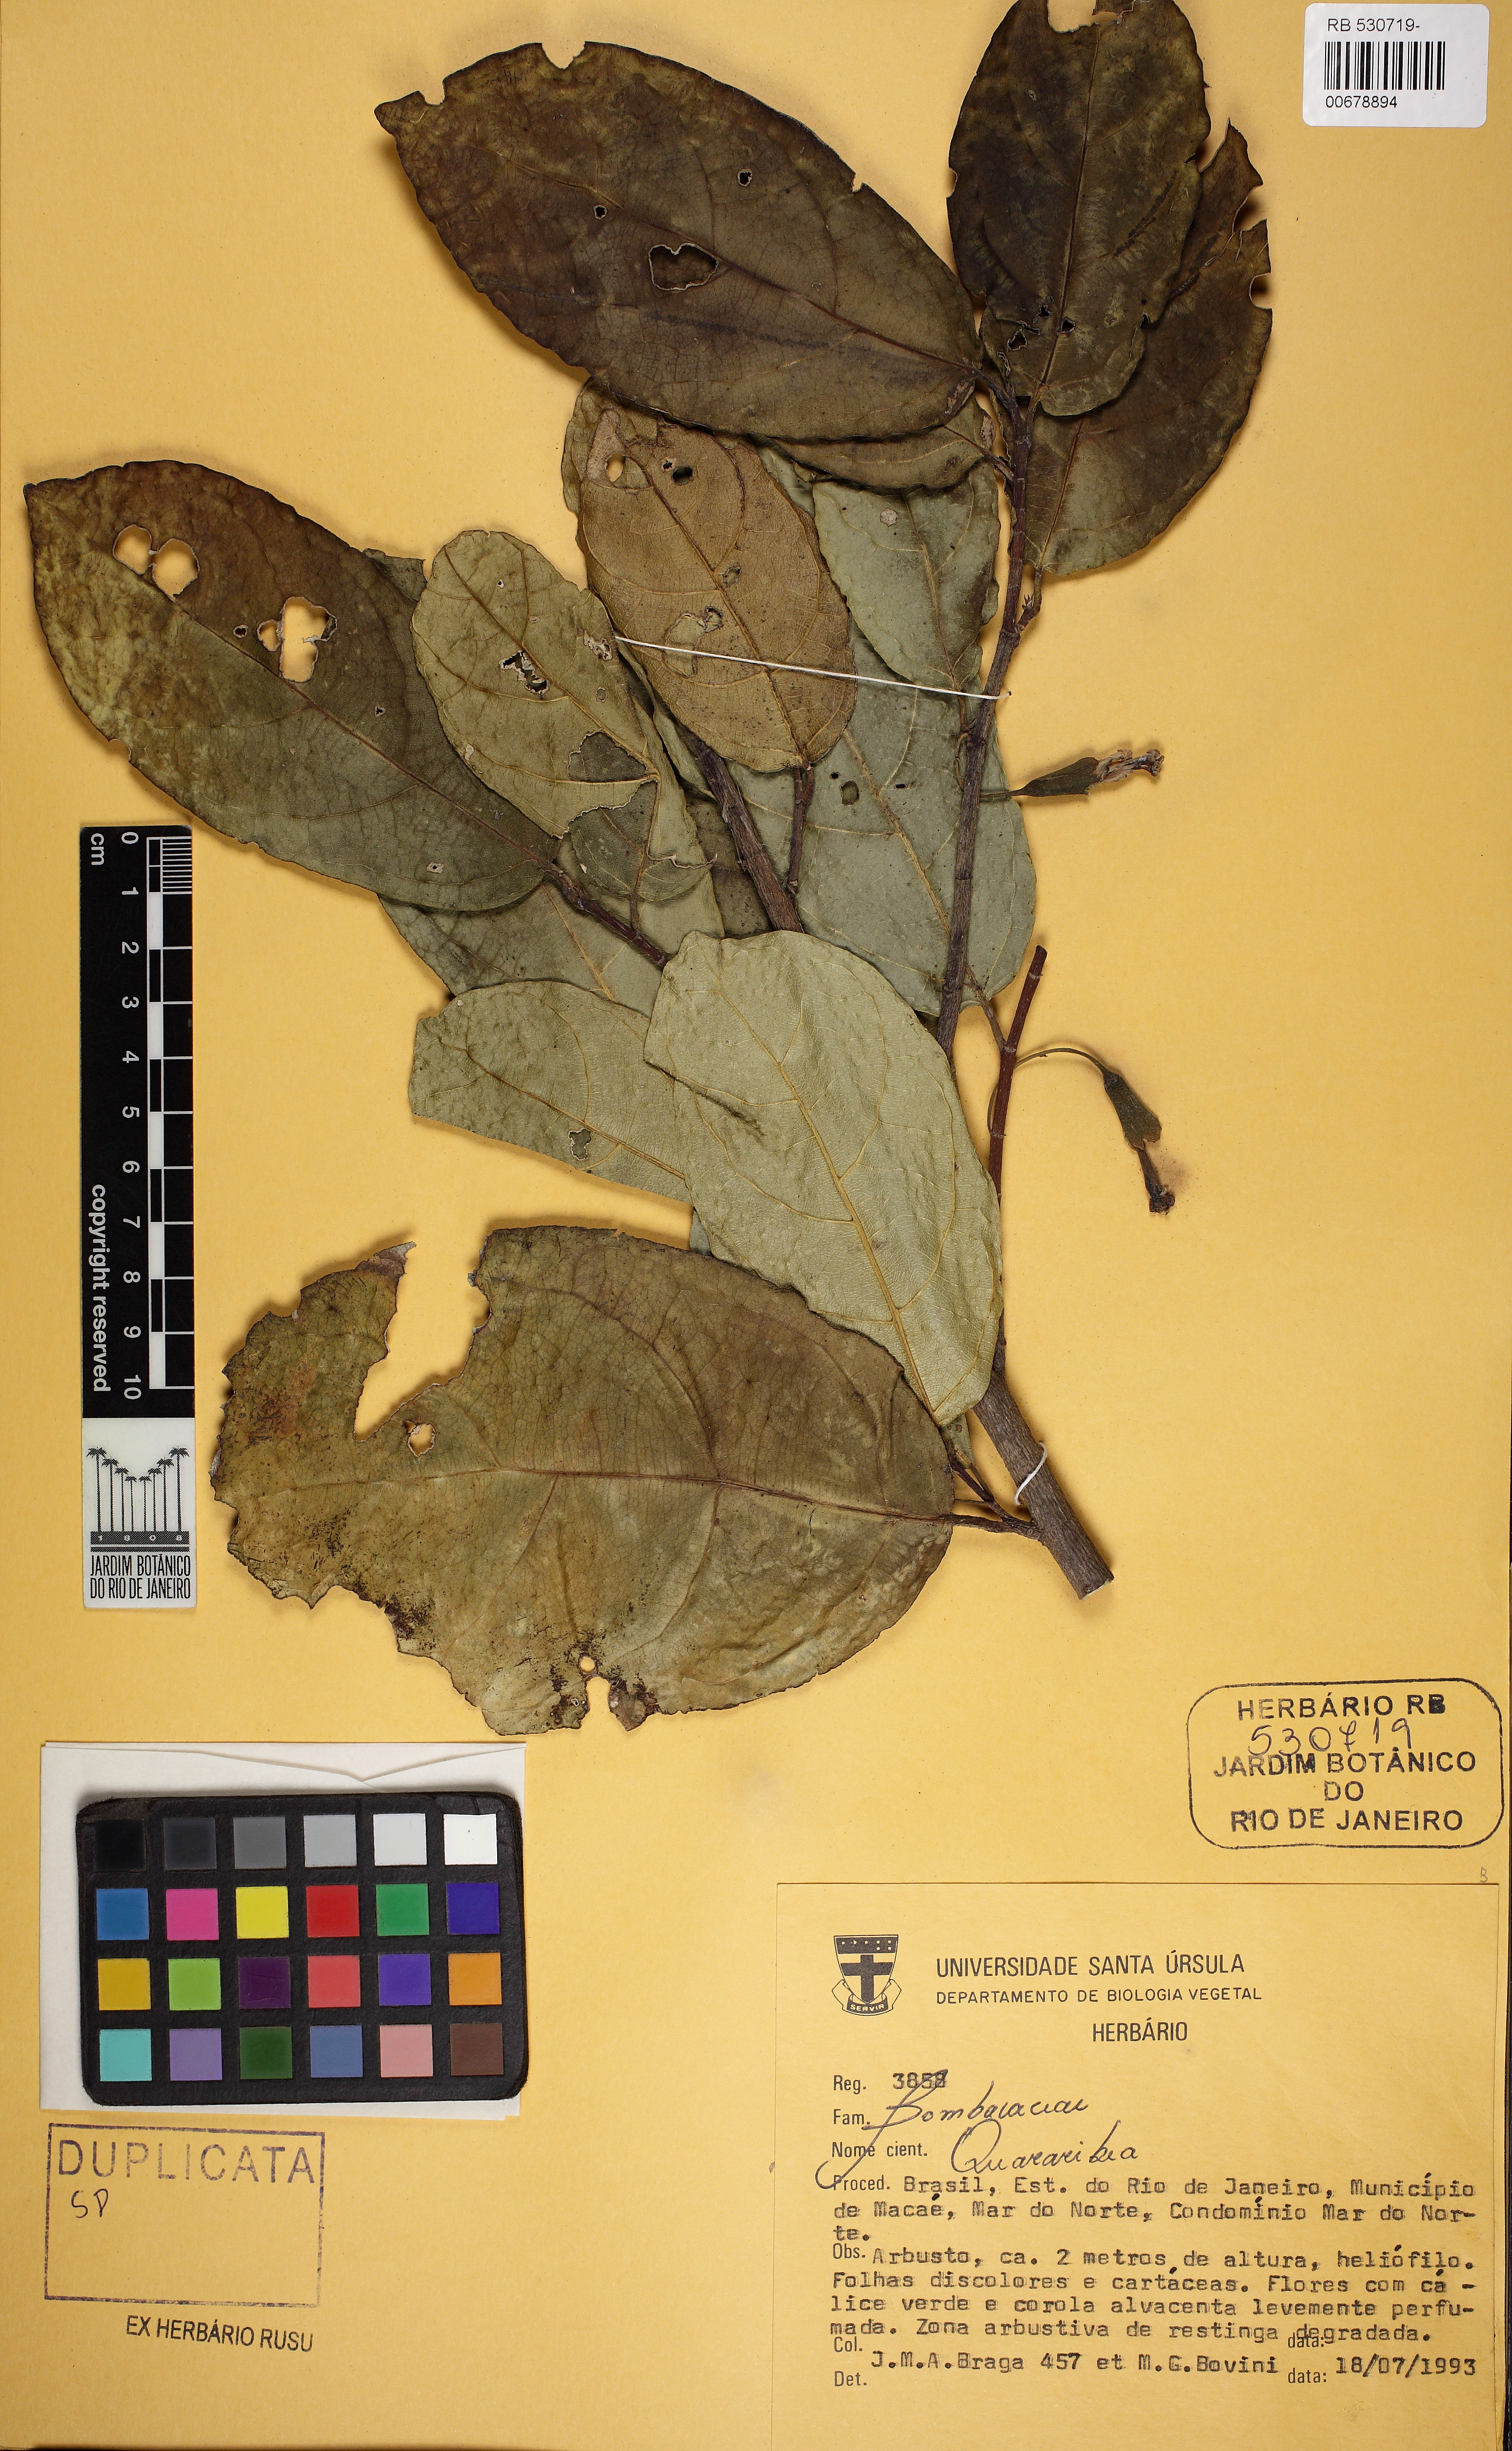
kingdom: Plantae
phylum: Tracheophyta
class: Magnoliopsida
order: Malvales
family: Malvaceae
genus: Quararibea
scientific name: Quararibea penduliflora
